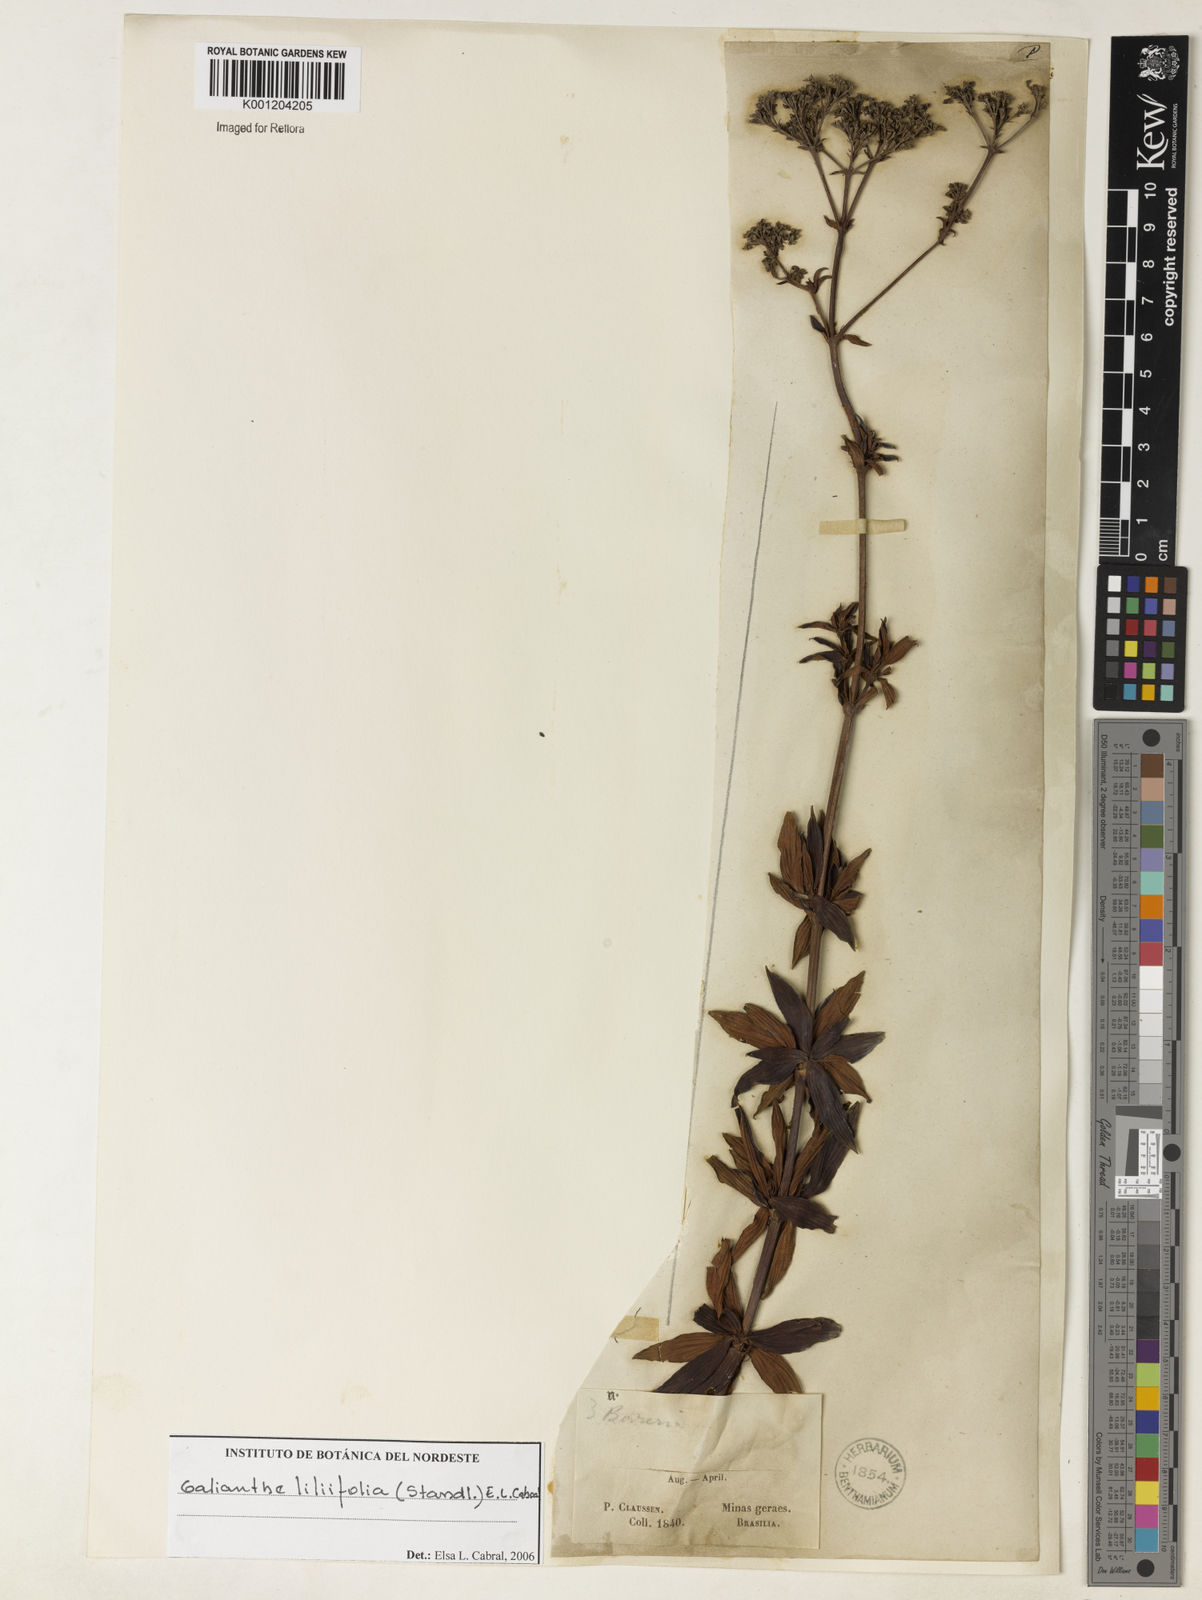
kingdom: Plantae
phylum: Tracheophyta
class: Magnoliopsida
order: Gentianales
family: Rubiaceae
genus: Galianthe
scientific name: Galianthe liliifolia
